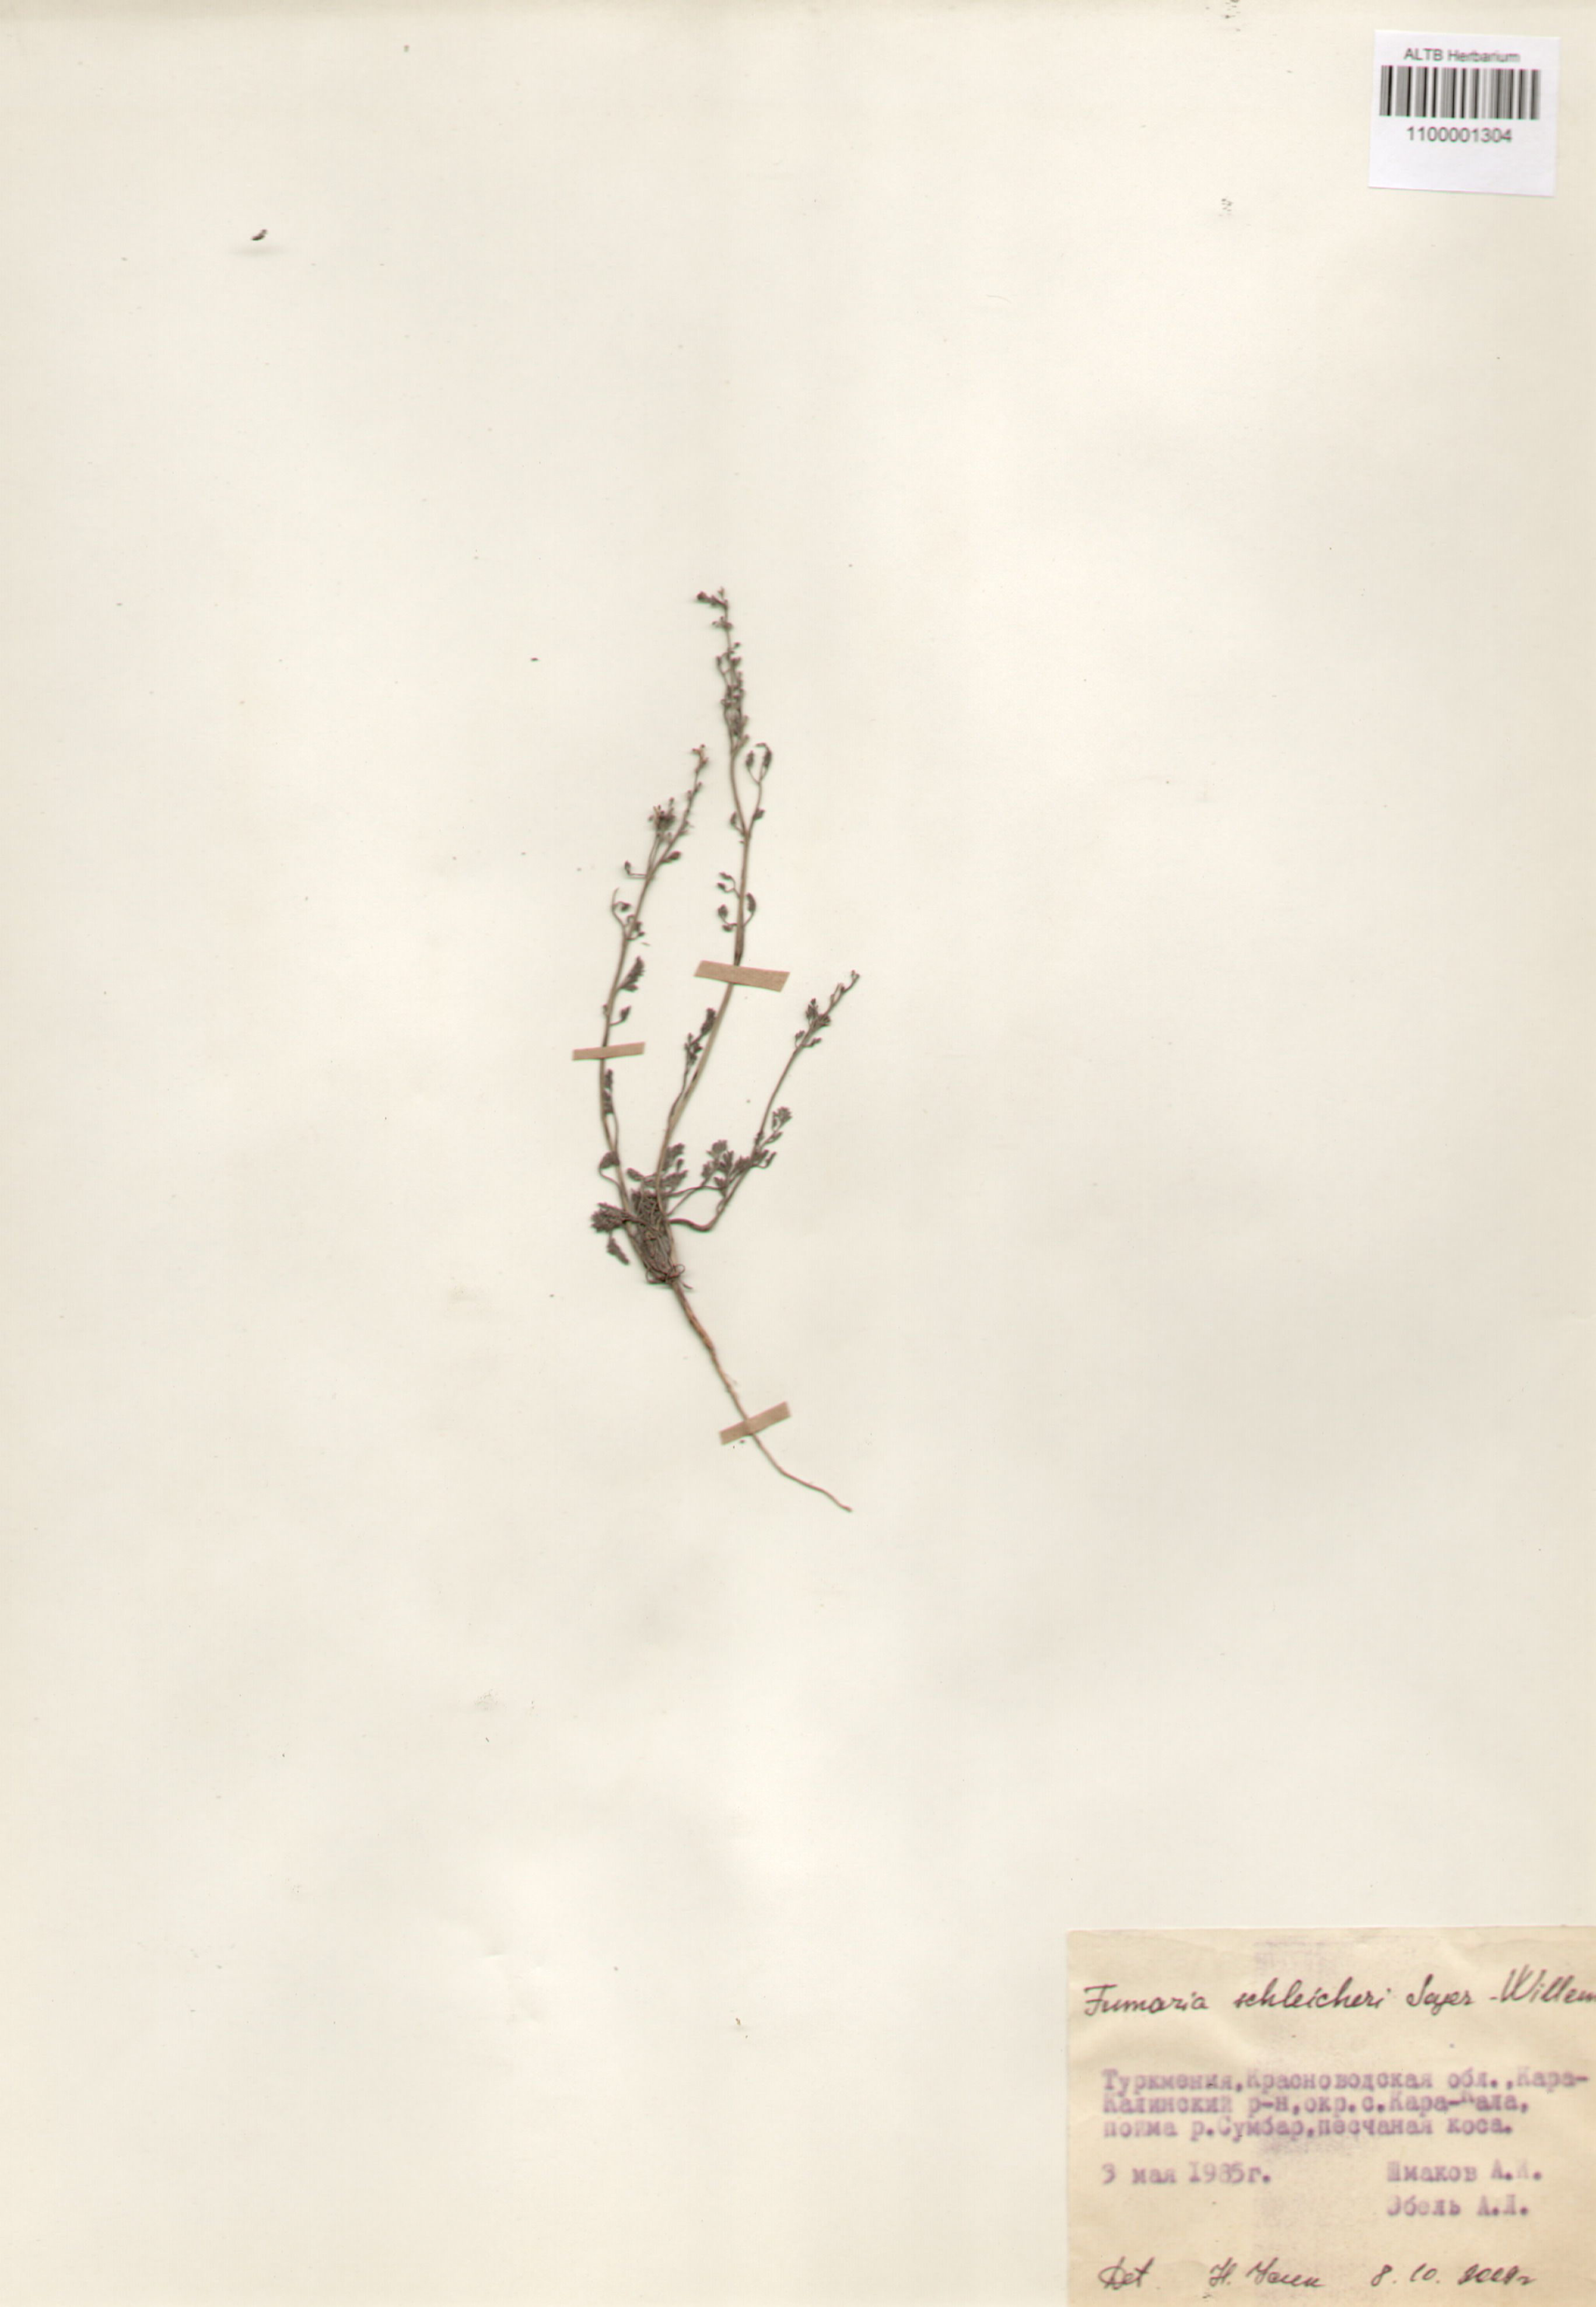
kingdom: Plantae
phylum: Tracheophyta
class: Magnoliopsida
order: Ranunculales
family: Papaveraceae
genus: Fumaria
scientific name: Fumaria schleicheri
